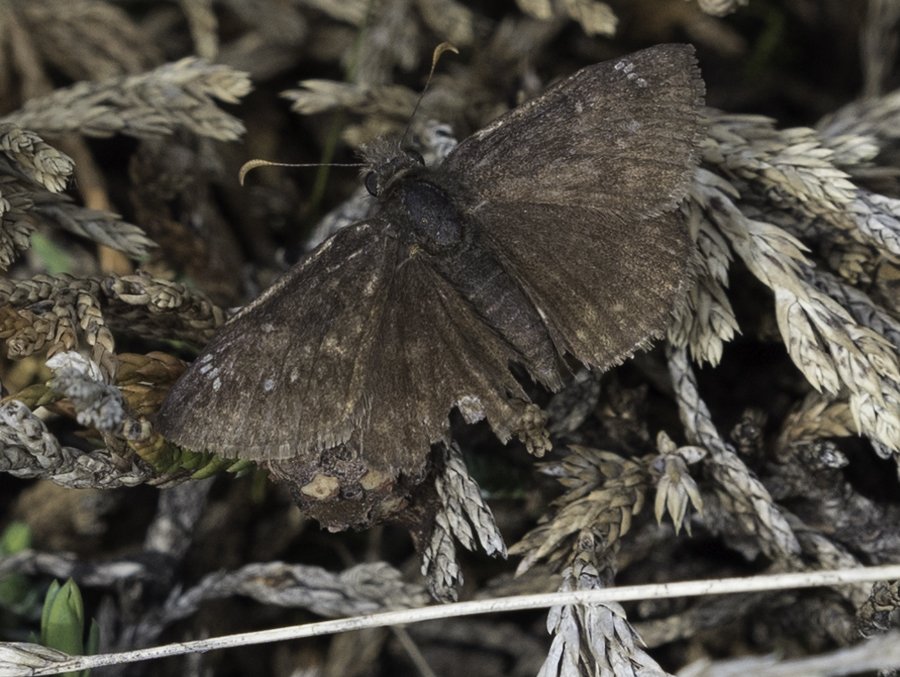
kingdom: Animalia
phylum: Arthropoda
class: Insecta
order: Lepidoptera
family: Hesperiidae
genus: Gesta
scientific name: Gesta
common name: Persius Duskywing
